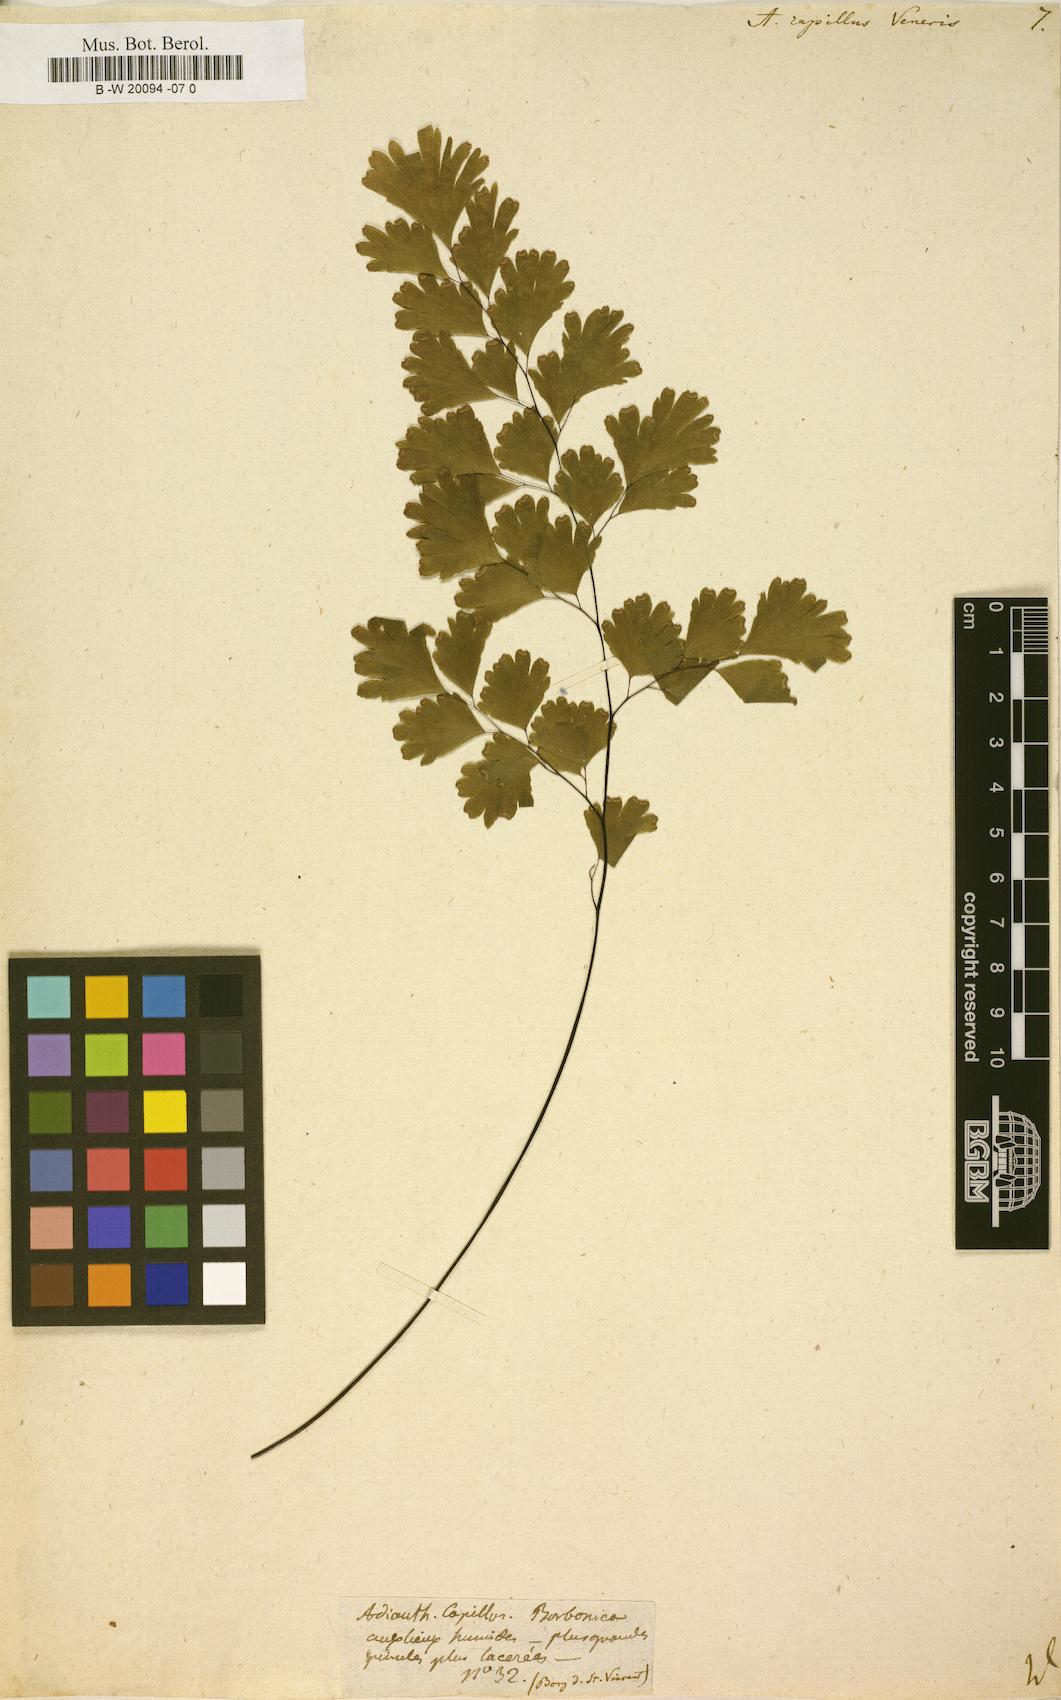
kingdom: Plantae
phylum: Tracheophyta
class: Polypodiopsida
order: Polypodiales
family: Pteridaceae
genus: Adiantum
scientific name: Adiantum capillus-veneris
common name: Maidenhair fern
